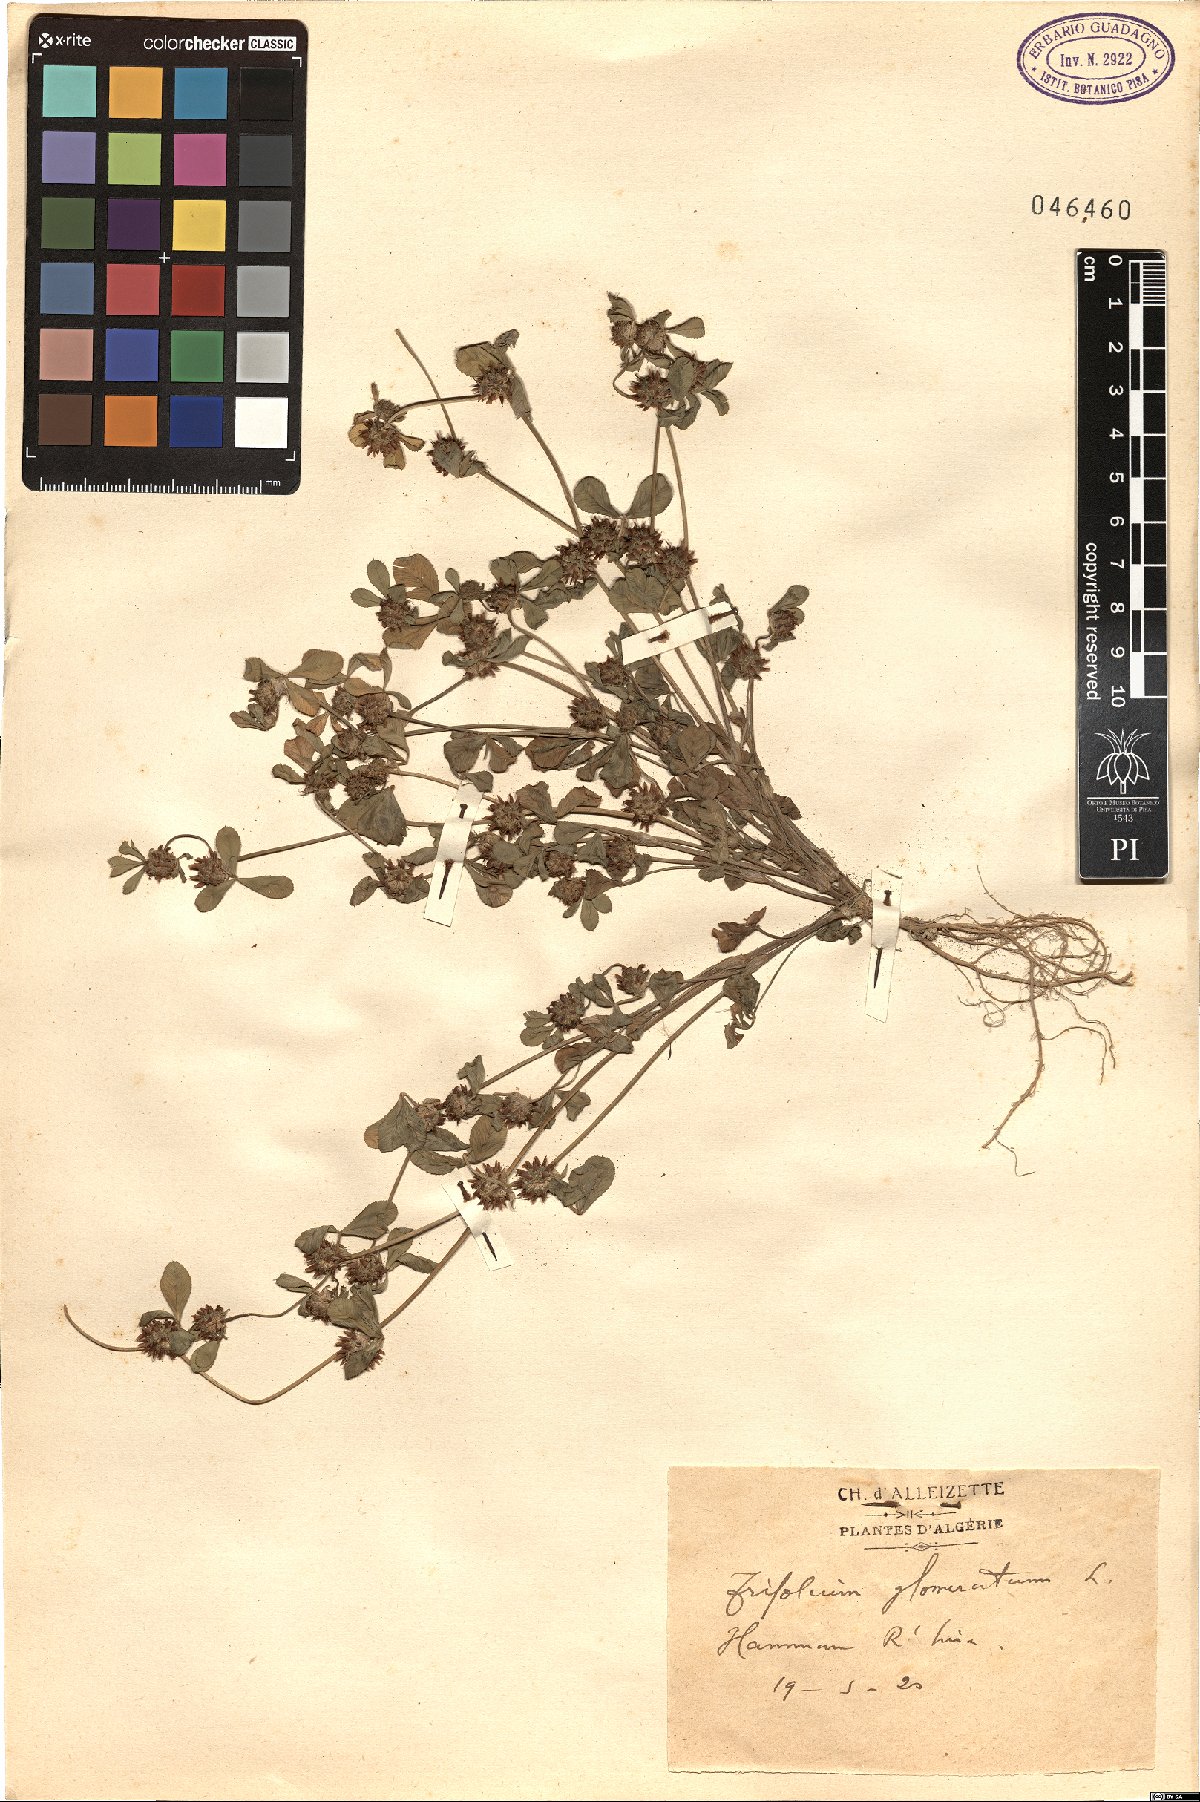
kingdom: Plantae
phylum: Tracheophyta
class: Magnoliopsida
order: Fabales
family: Fabaceae
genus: Trifolium
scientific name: Trifolium glomeratum
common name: Clustered clover
